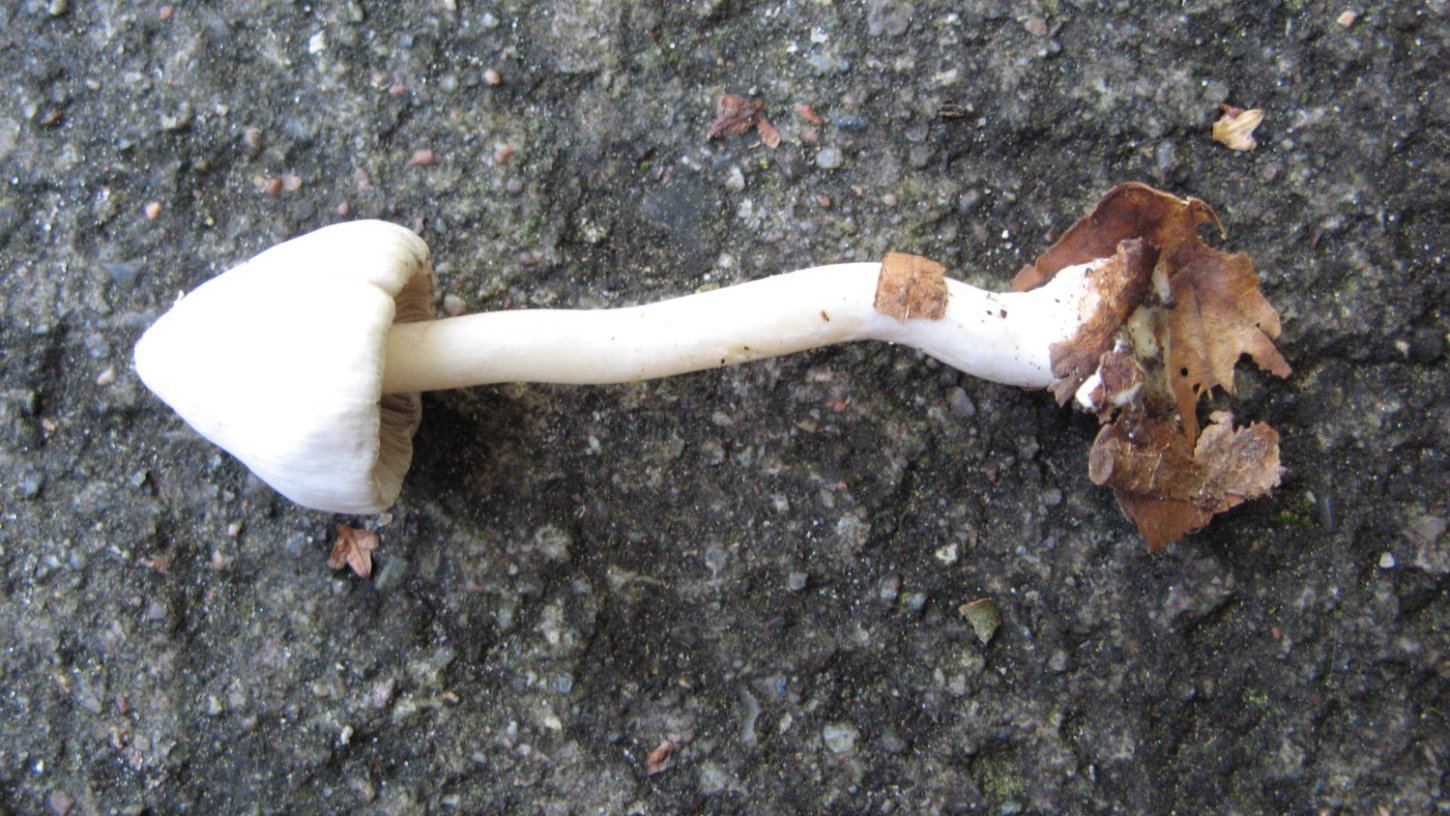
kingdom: Fungi
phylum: Basidiomycota
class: Agaricomycetes
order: Agaricales
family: Inocybaceae
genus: Inocybe
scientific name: Inocybe
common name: almindelig trævlhat
